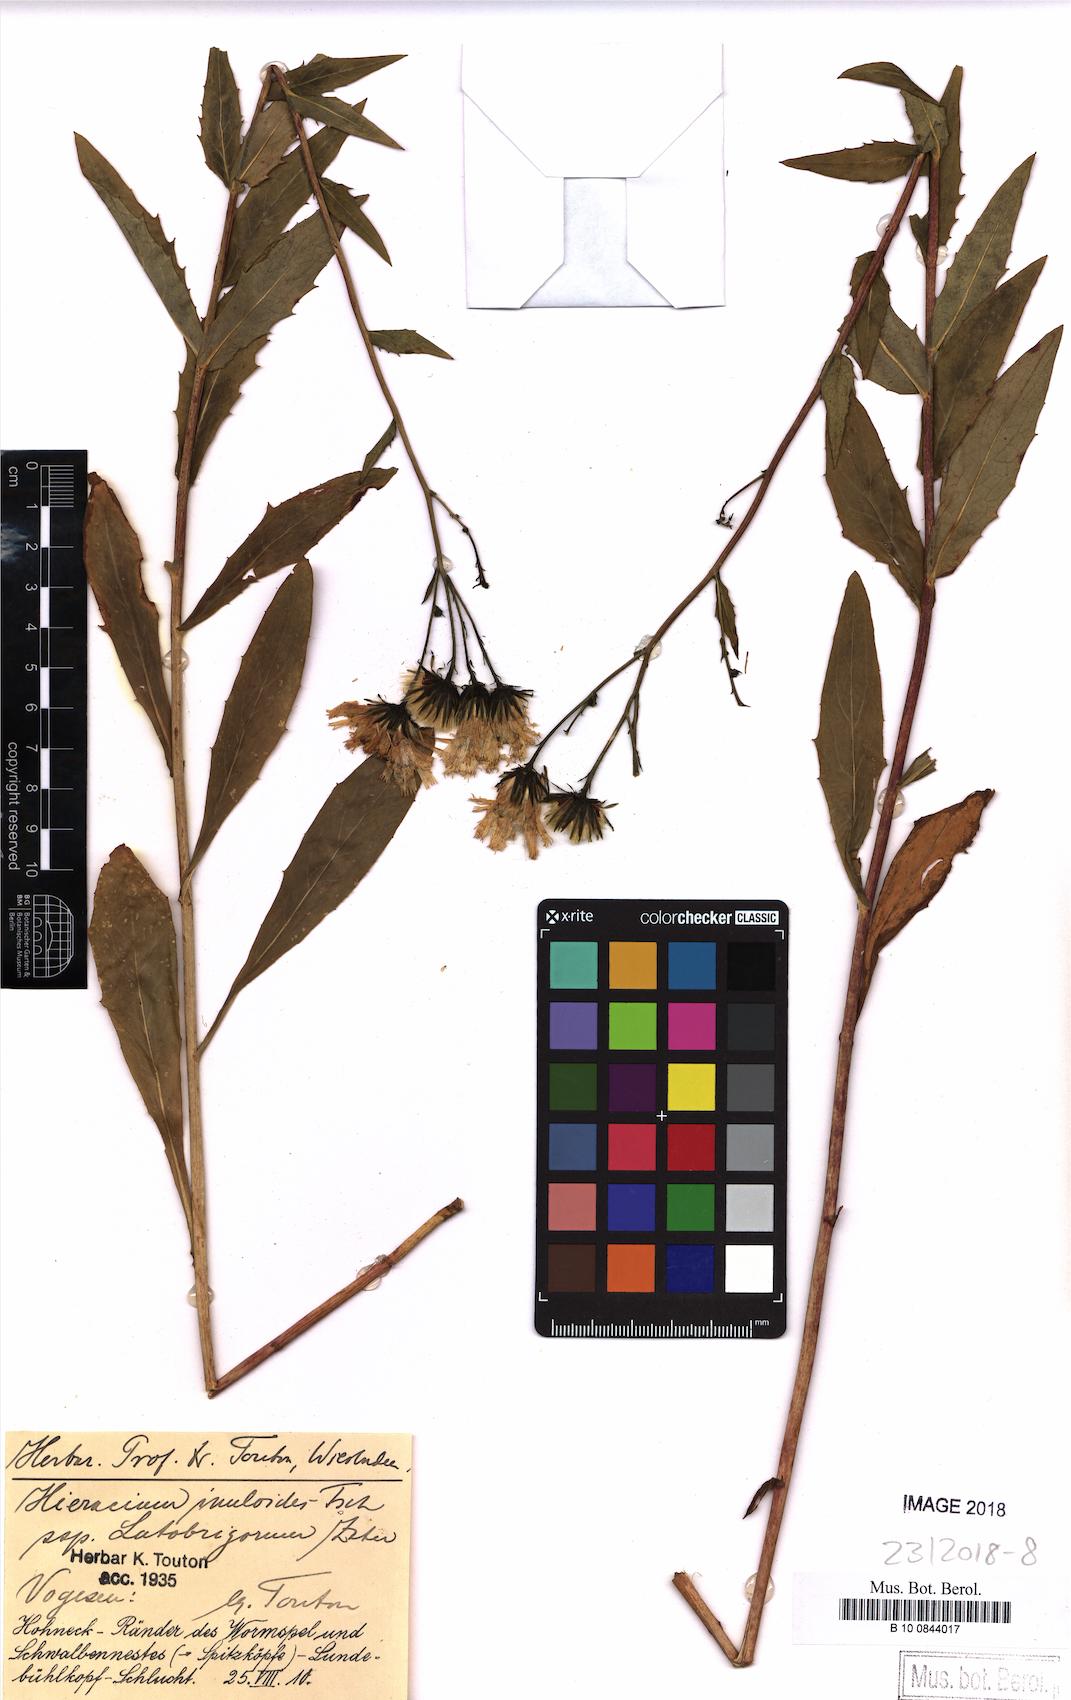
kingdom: Plantae
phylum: Tracheophyta
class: Magnoliopsida
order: Asterales
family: Asteraceae
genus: Hieracium
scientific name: Hieracium inuloides
